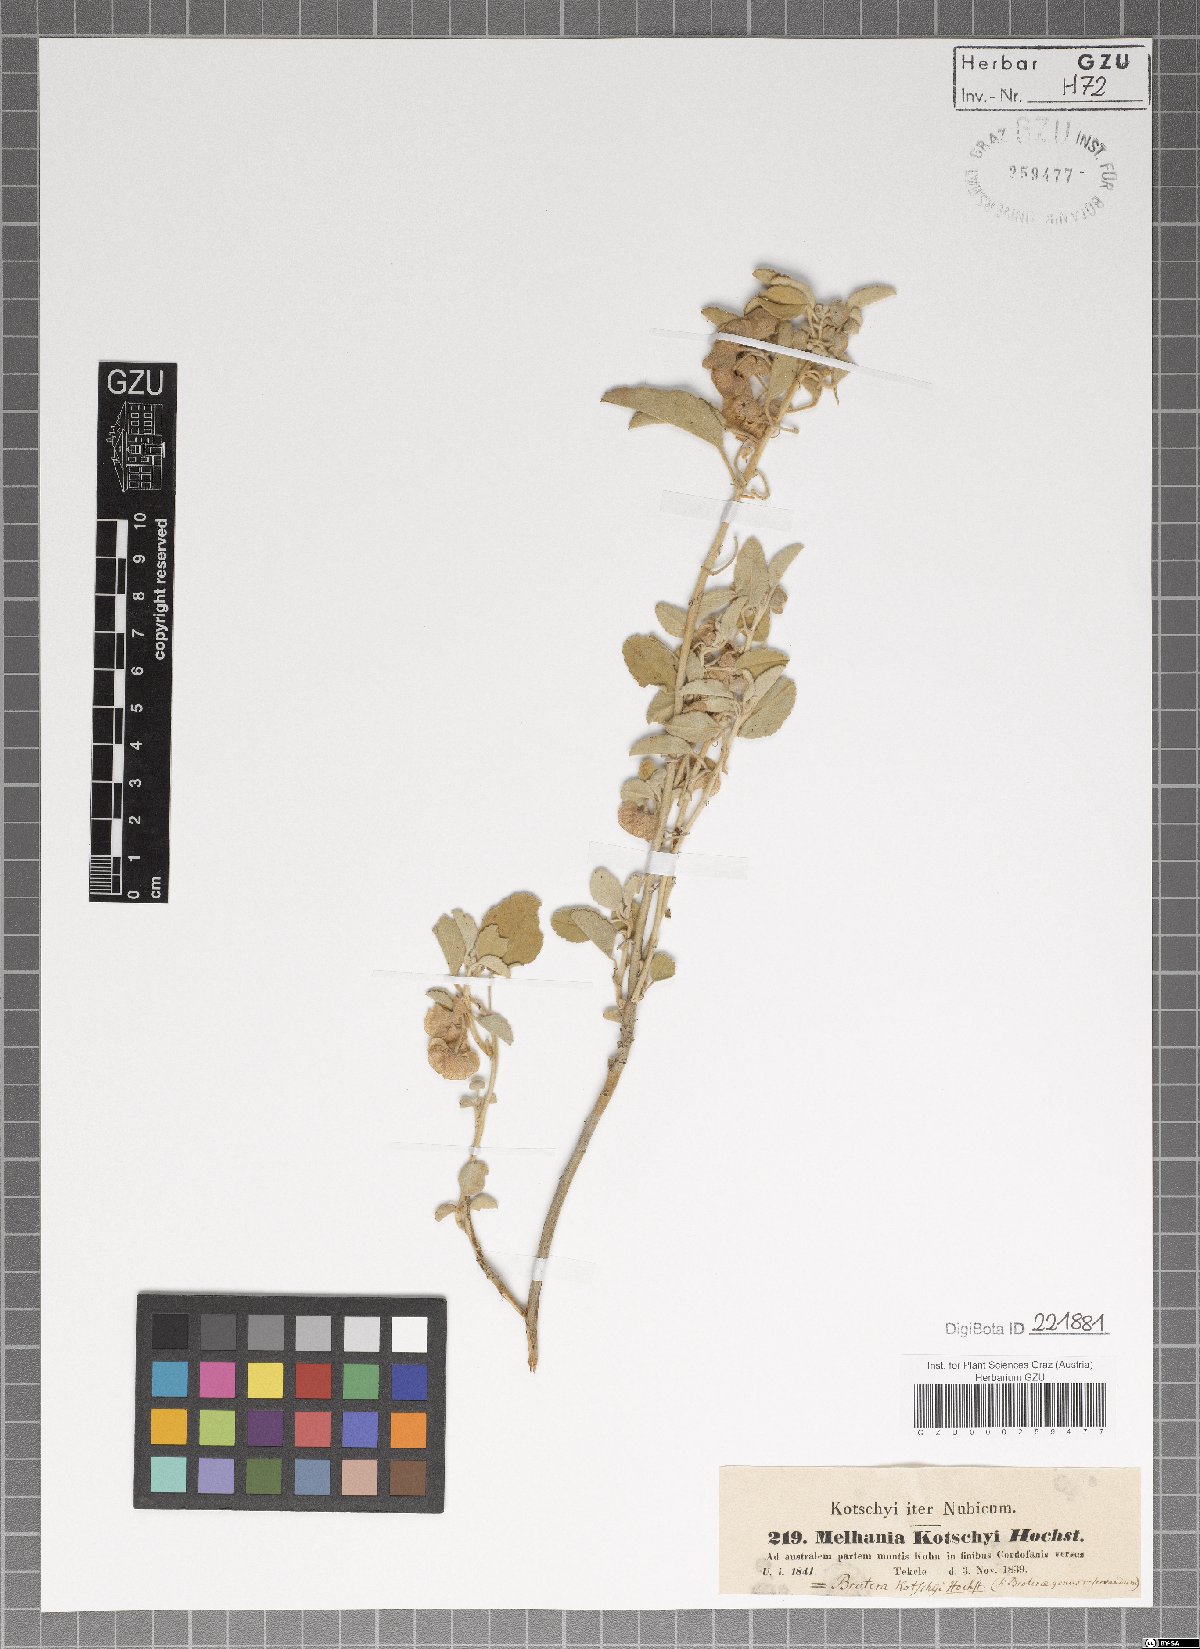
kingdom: Plantae
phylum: Tracheophyta
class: Magnoliopsida
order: Malvales
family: Malvaceae
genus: Melhania
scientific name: Melhania denhamii
